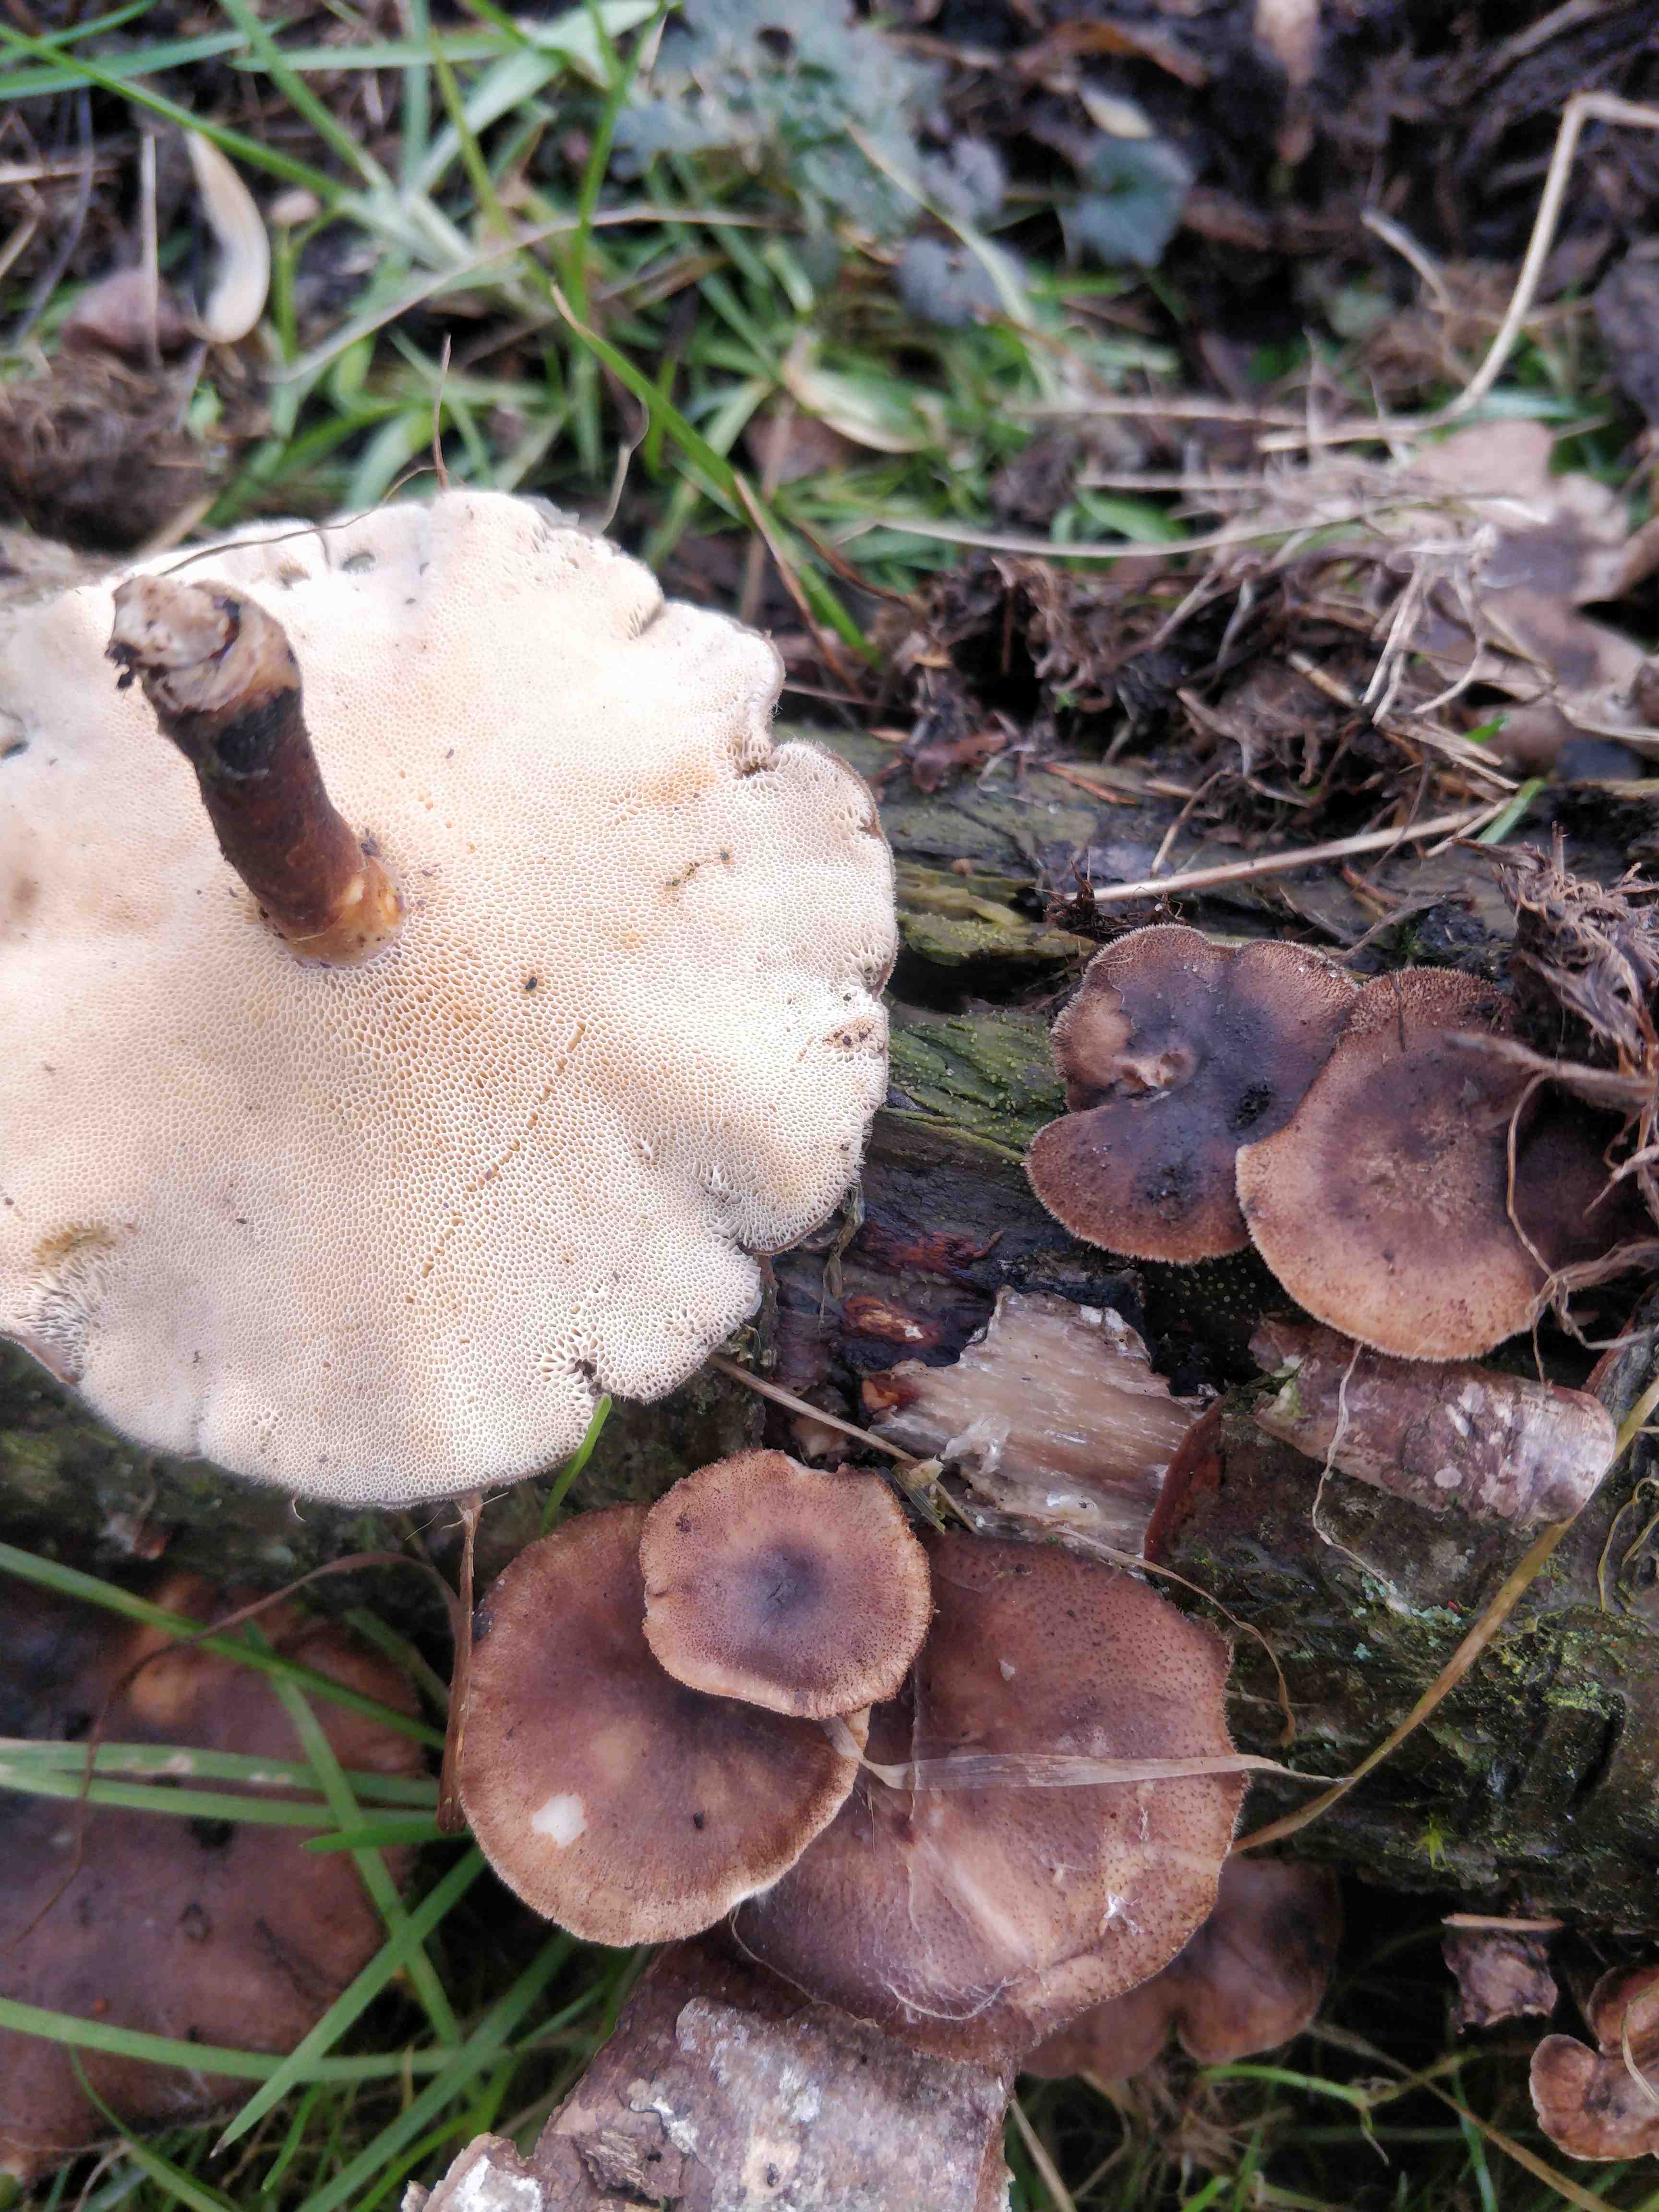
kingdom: Fungi
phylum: Basidiomycota
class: Agaricomycetes
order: Polyporales
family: Polyporaceae
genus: Lentinus
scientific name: Lentinus brumalis
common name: vinter-stilkporesvamp
